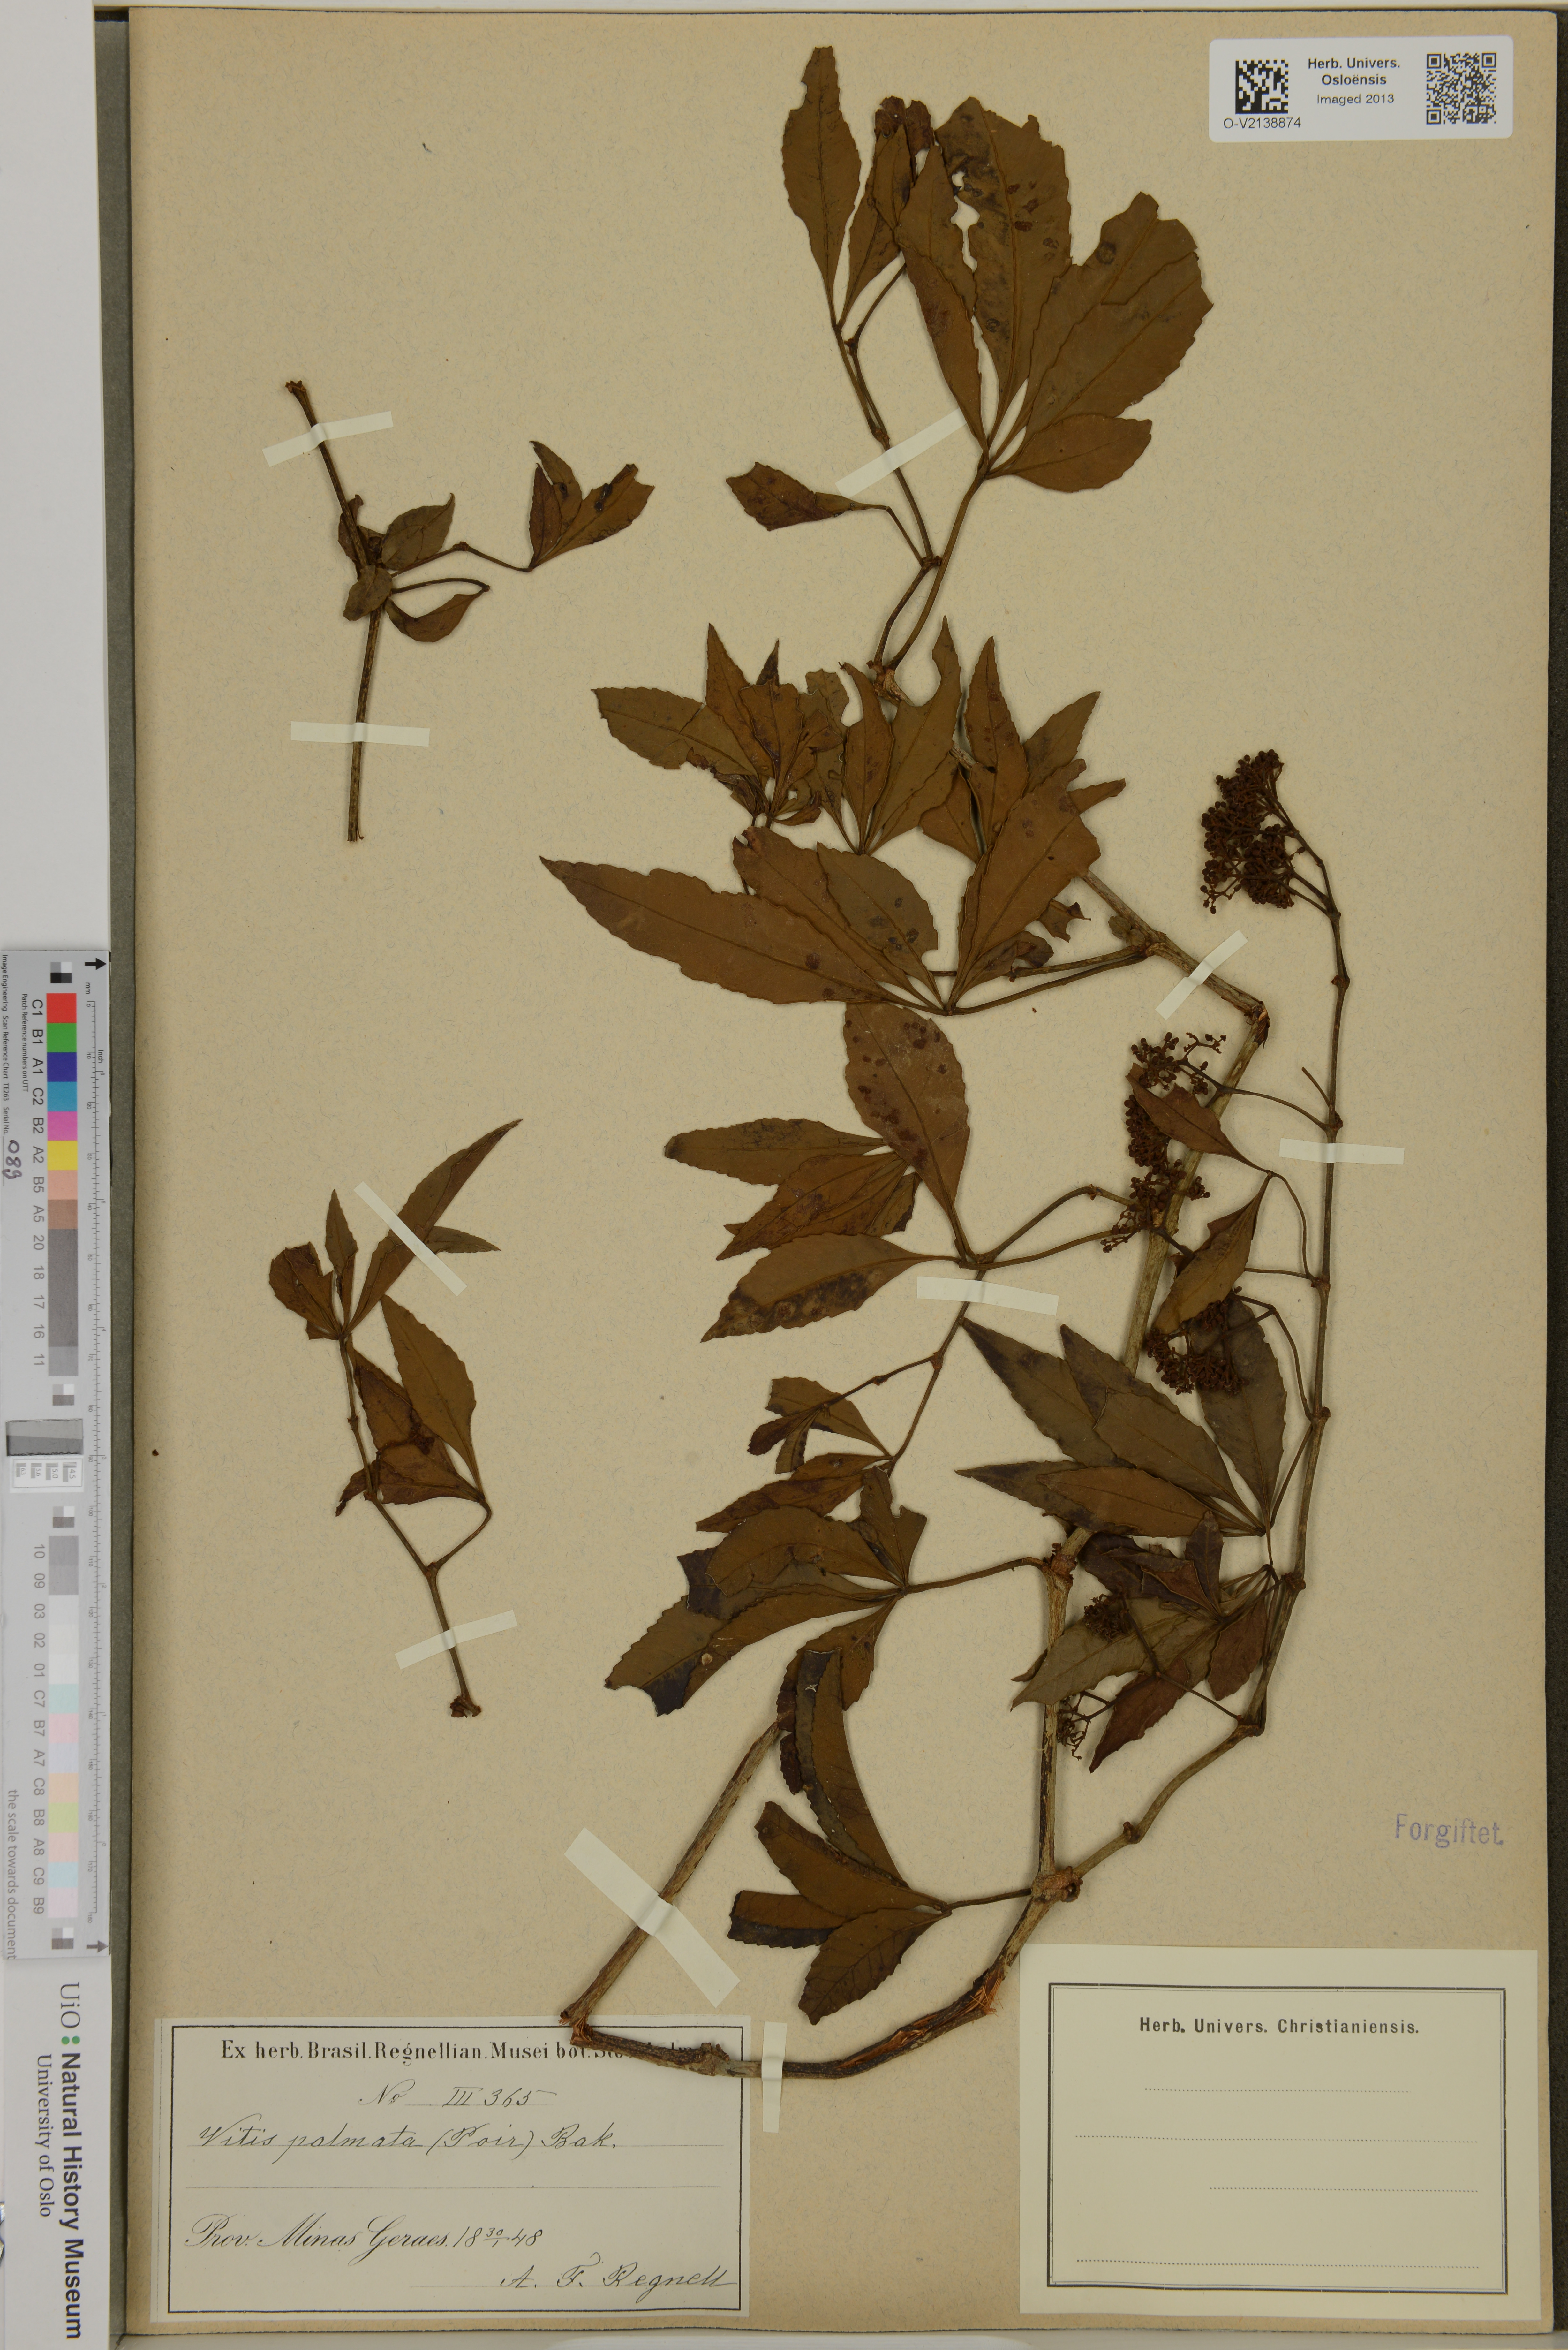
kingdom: Plantae
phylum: Tracheophyta
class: Magnoliopsida
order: Vitales
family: Vitaceae
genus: Vitis
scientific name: Vitis palmata
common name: Catbird grape
